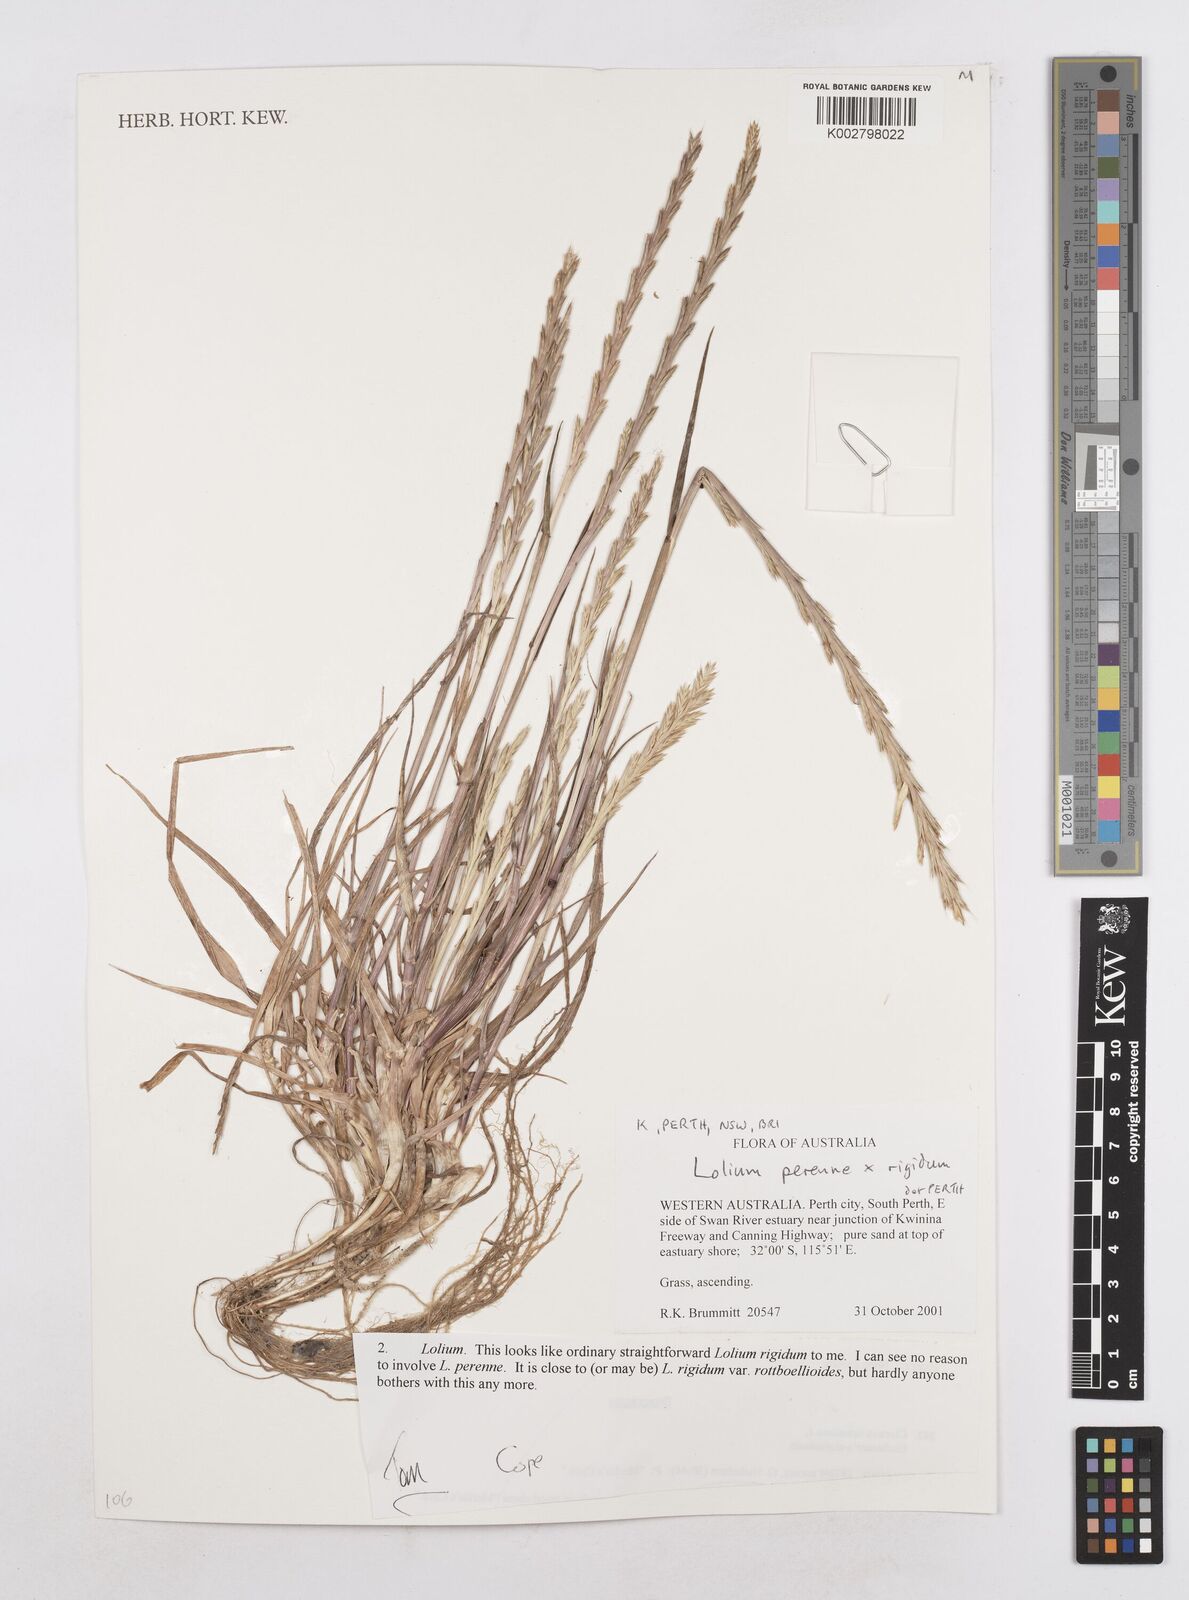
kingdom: Plantae
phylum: Tracheophyta
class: Liliopsida
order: Poales
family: Poaceae
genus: Lolium
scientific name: Lolium perenne
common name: Perennial ryegrass
